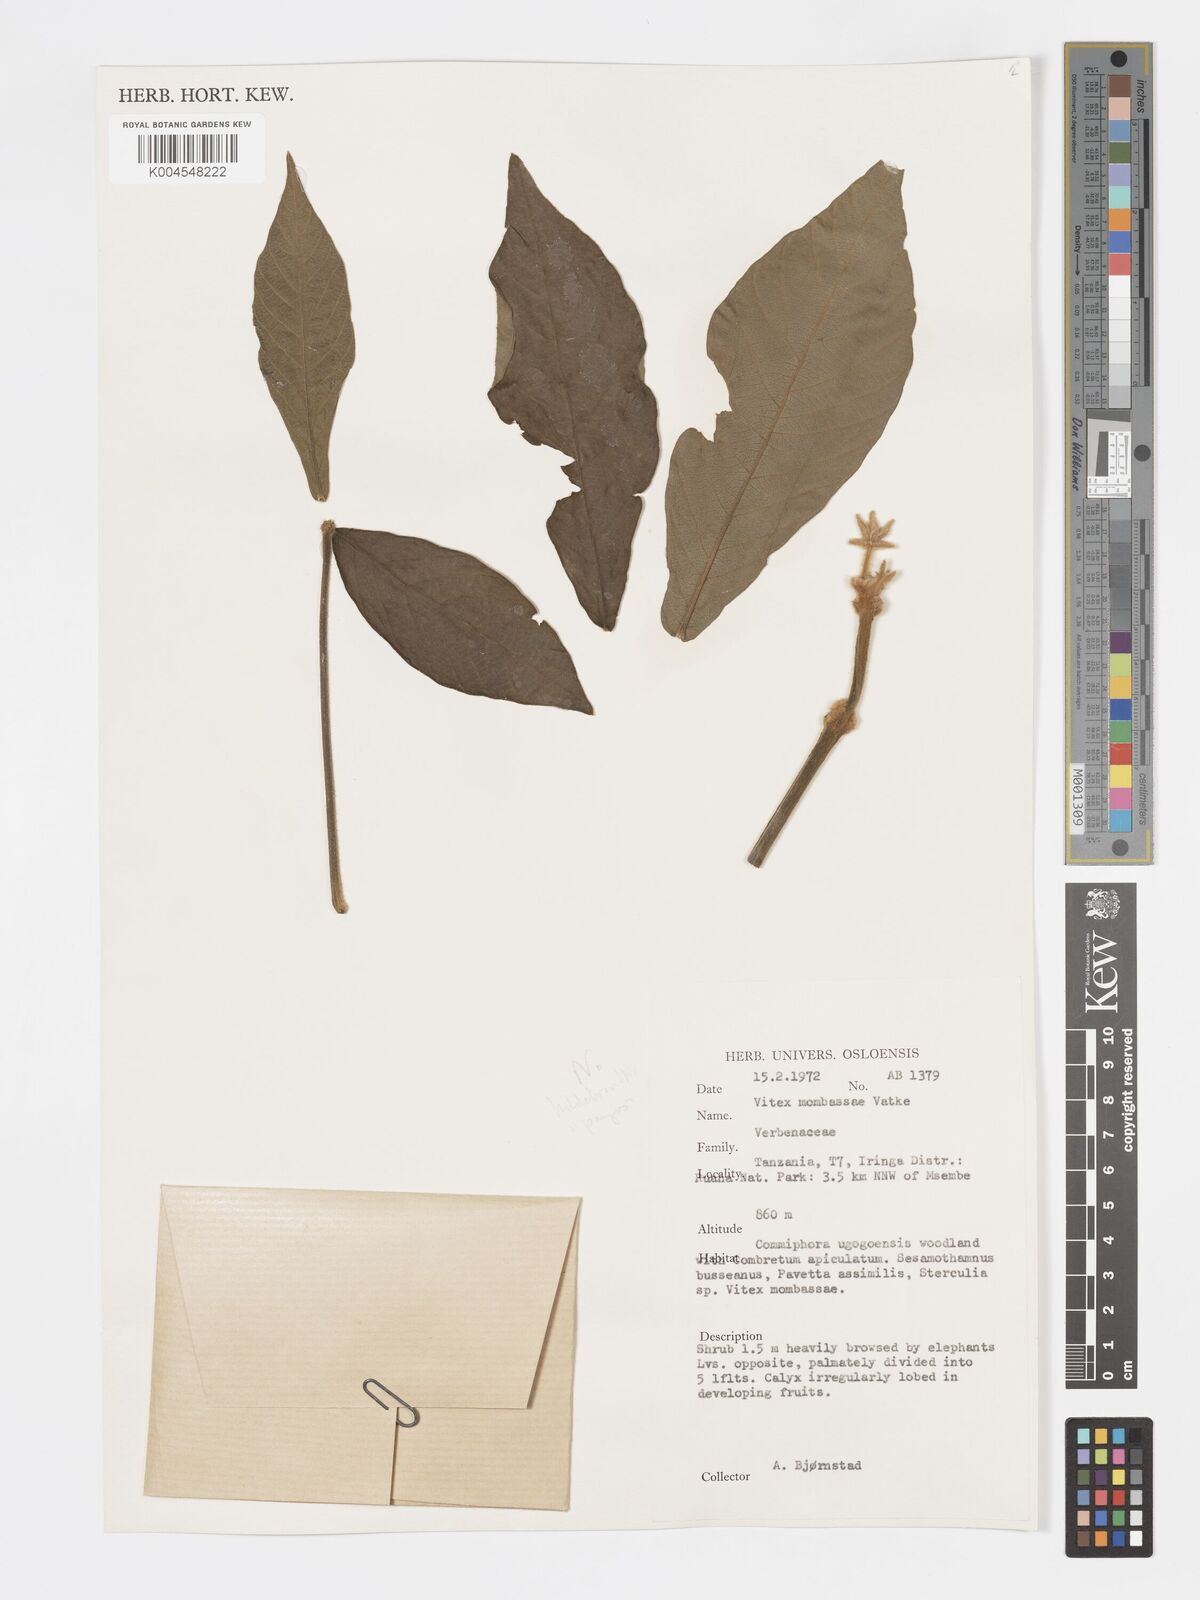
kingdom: Plantae
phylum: Tracheophyta
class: Magnoliopsida
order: Lamiales
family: Lamiaceae
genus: Vitex
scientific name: Vitex payos
